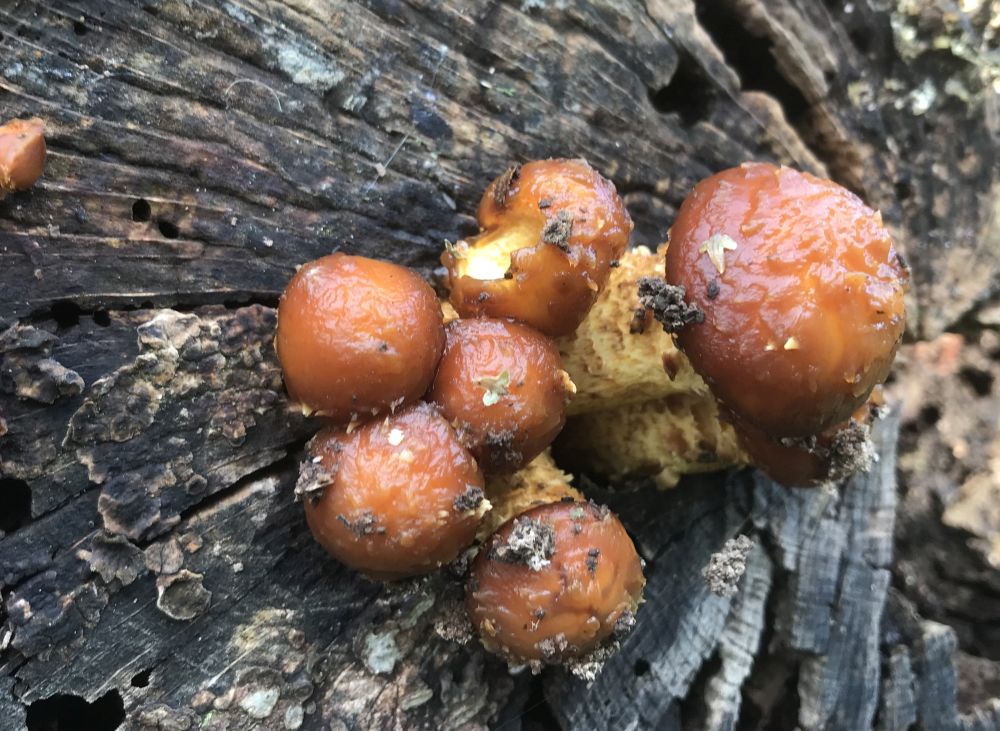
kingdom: Fungi
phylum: Basidiomycota
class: Agaricomycetes
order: Agaricales
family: Strophariaceae
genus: Pholiota
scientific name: Pholiota adiposa
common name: højtsiddende skælhat
